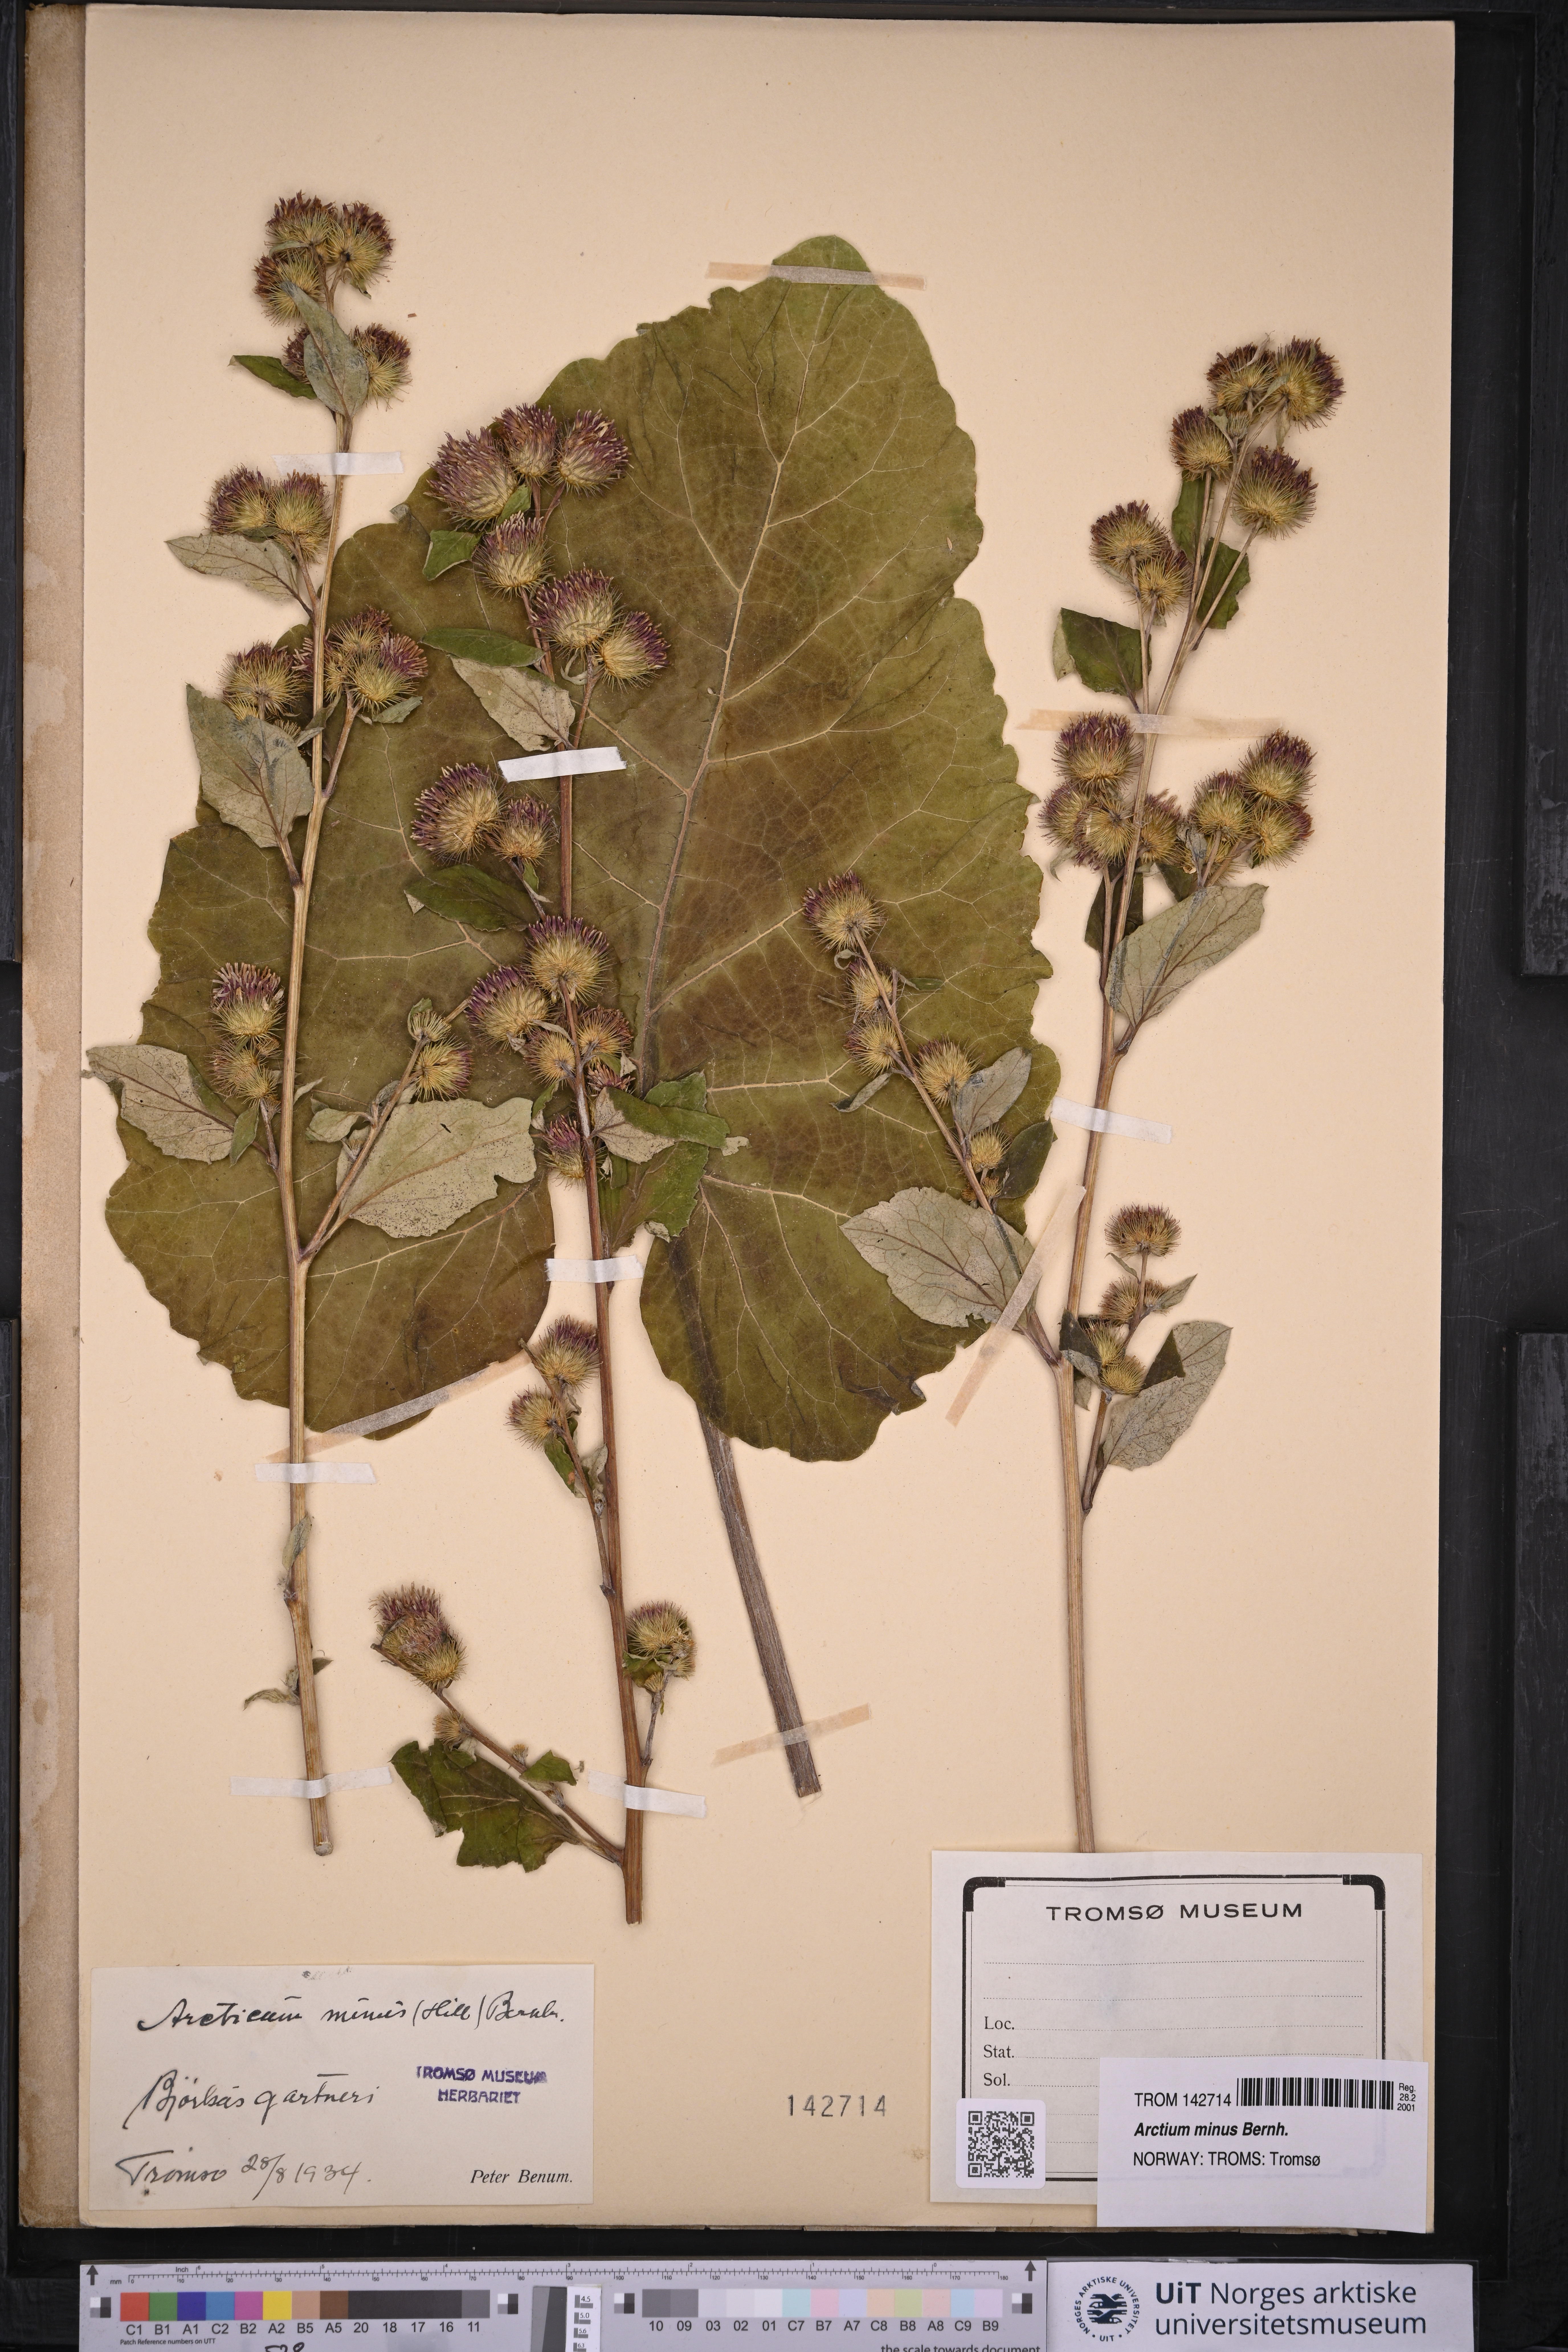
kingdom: Plantae
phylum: Tracheophyta
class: Magnoliopsida
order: Asterales
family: Asteraceae
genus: Arctium
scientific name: Arctium minus
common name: Lesser burdock
